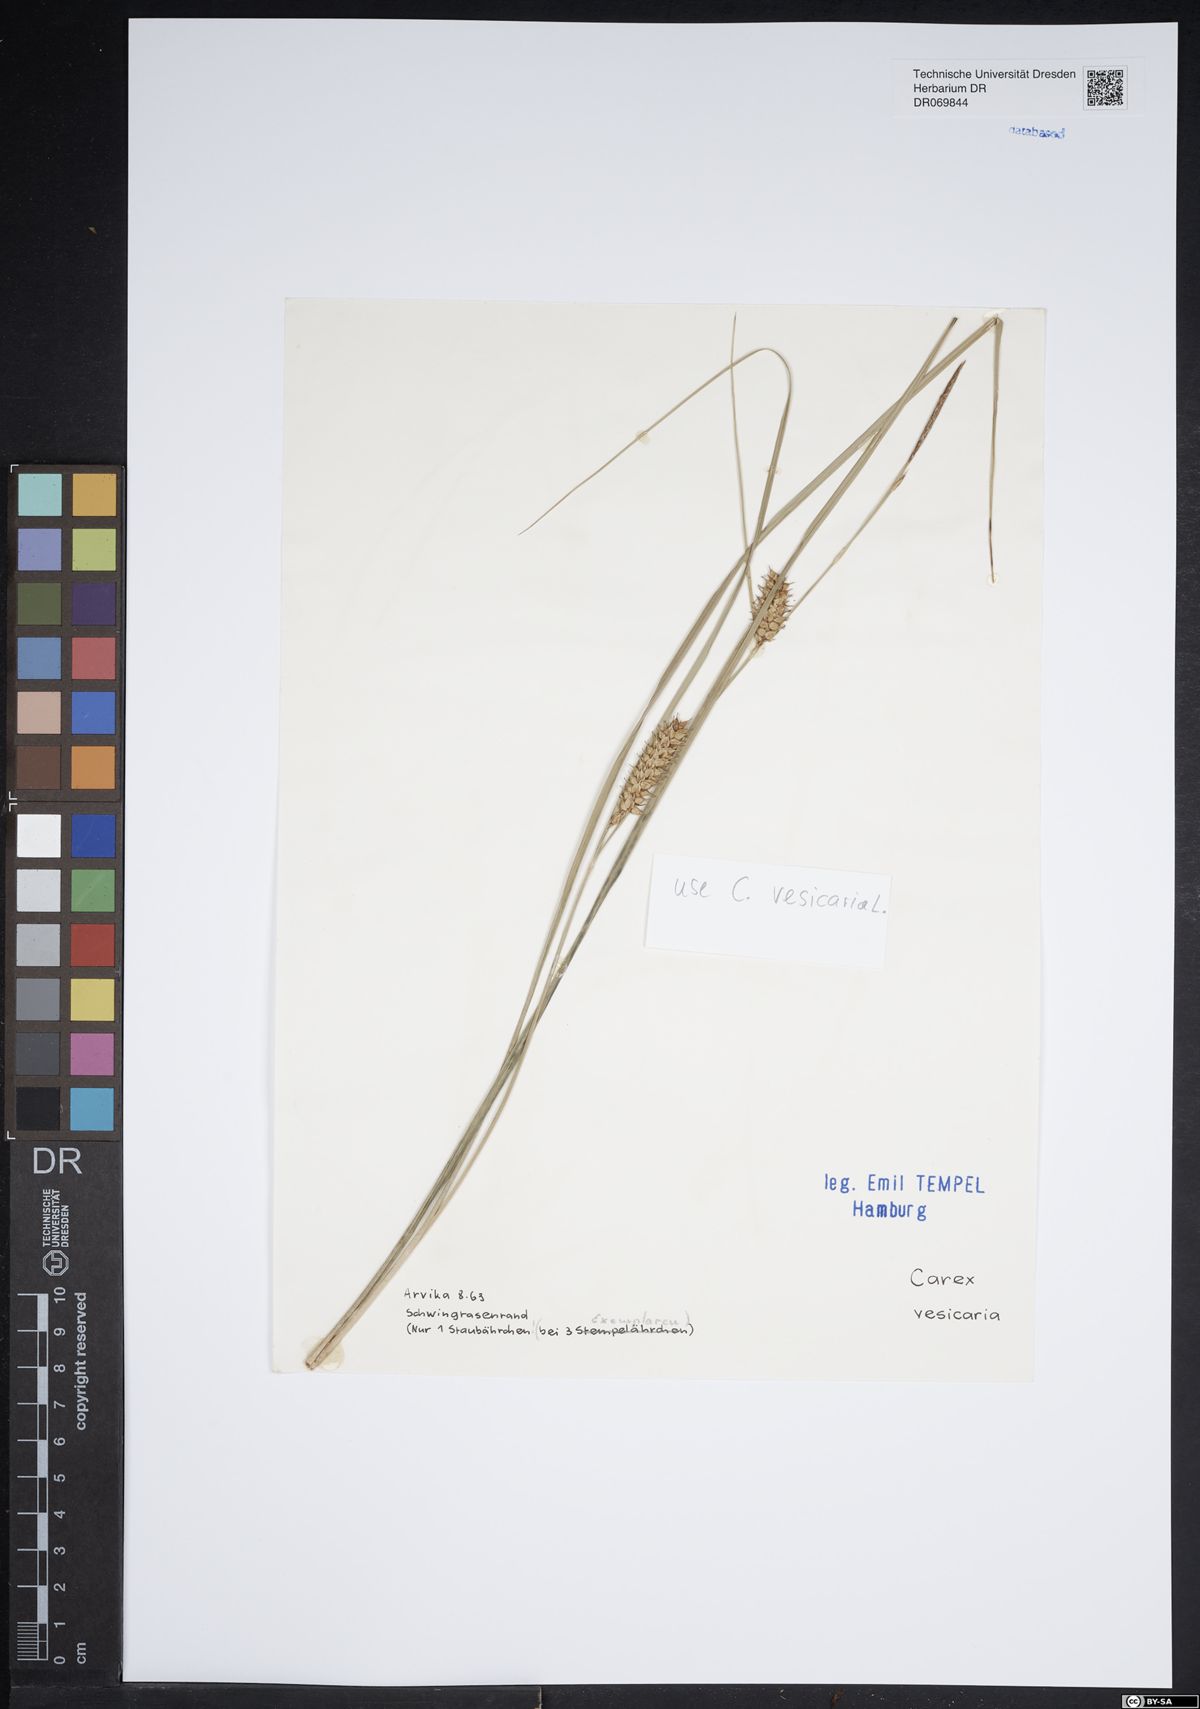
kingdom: Plantae
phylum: Tracheophyta
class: Liliopsida
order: Poales
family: Cyperaceae
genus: Carex
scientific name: Carex vesicaria
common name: Bladder-sedge
